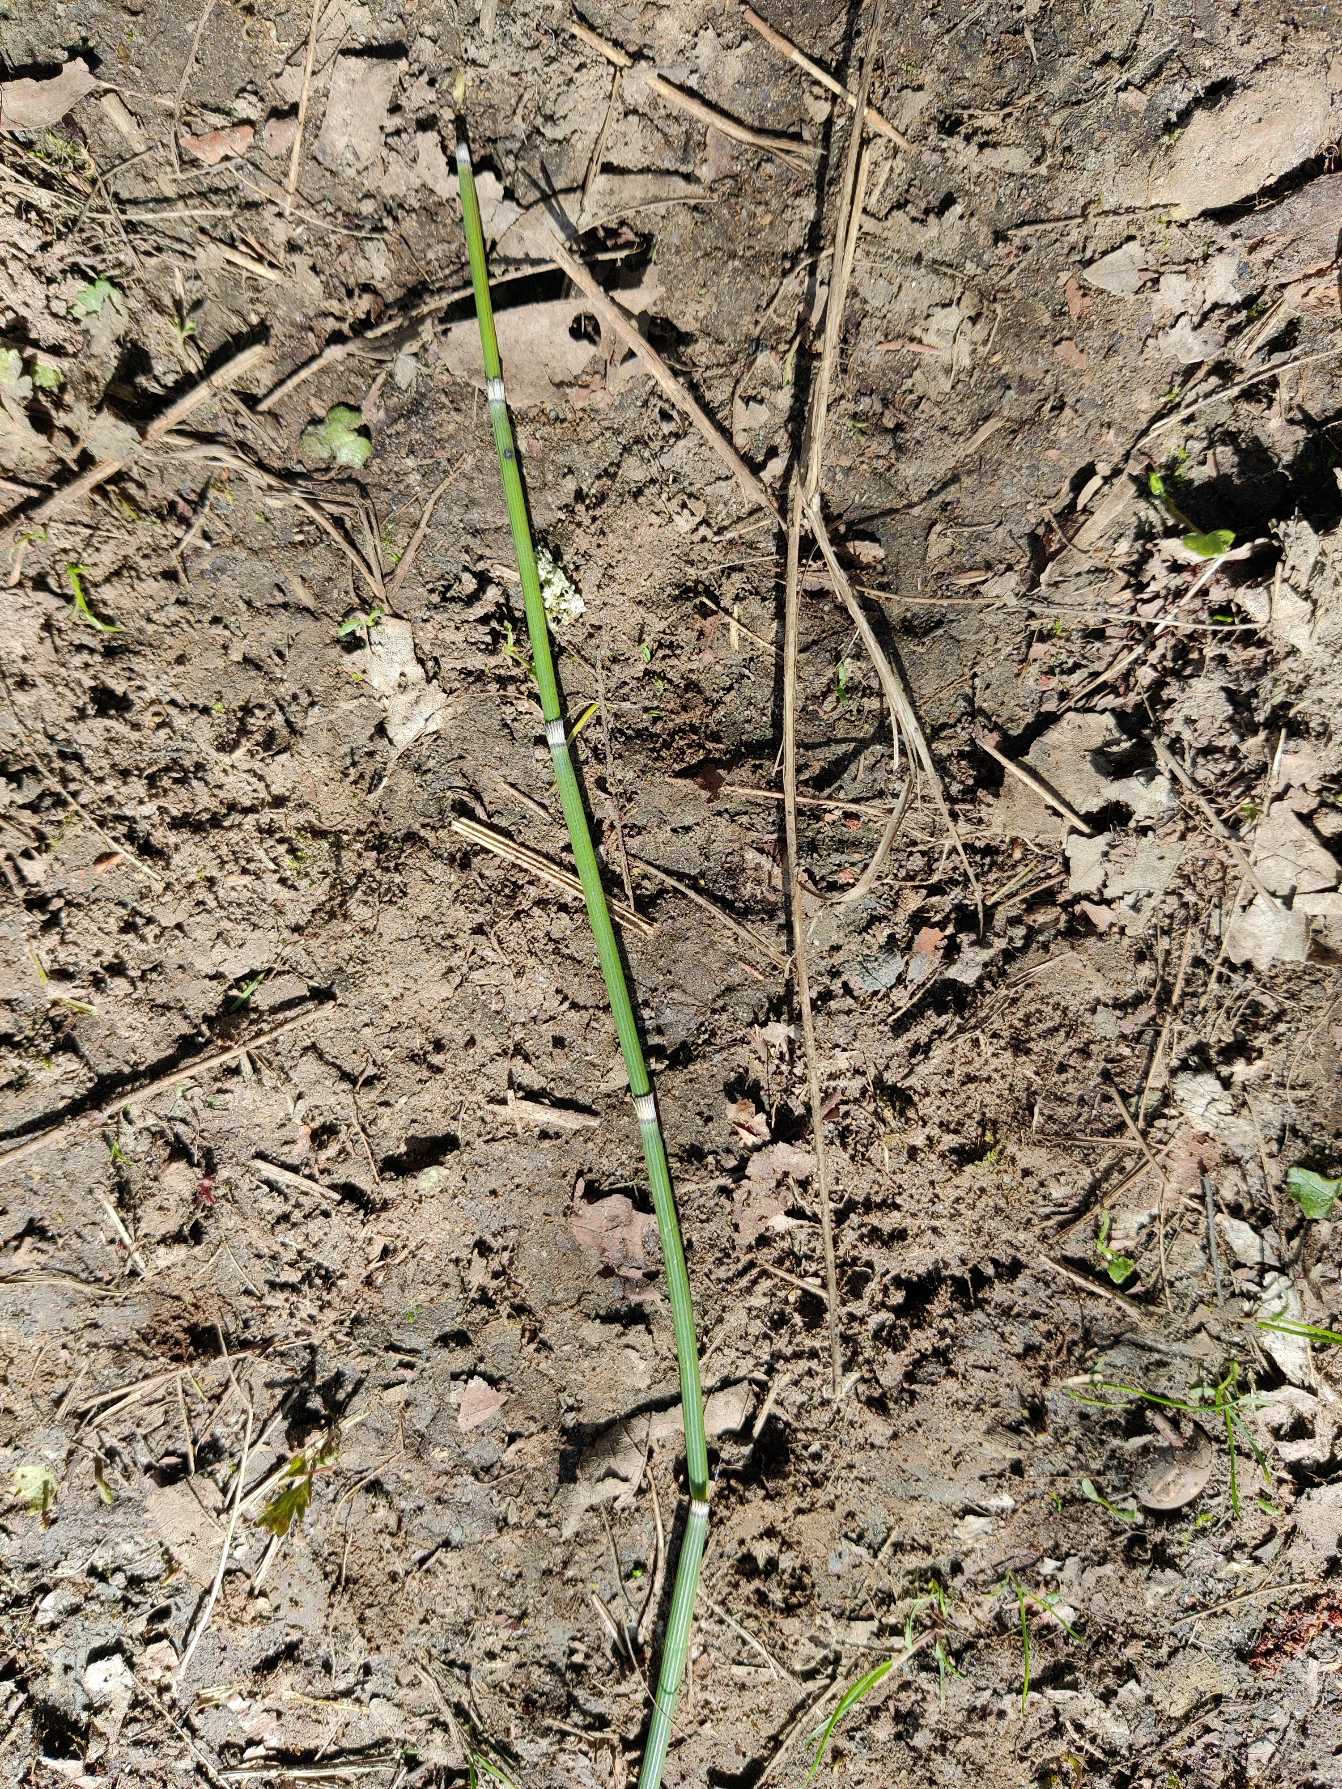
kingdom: Plantae
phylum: Tracheophyta
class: Polypodiopsida
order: Equisetales
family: Equisetaceae
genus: Equisetum
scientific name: Equisetum hyemale
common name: Skavgræs
